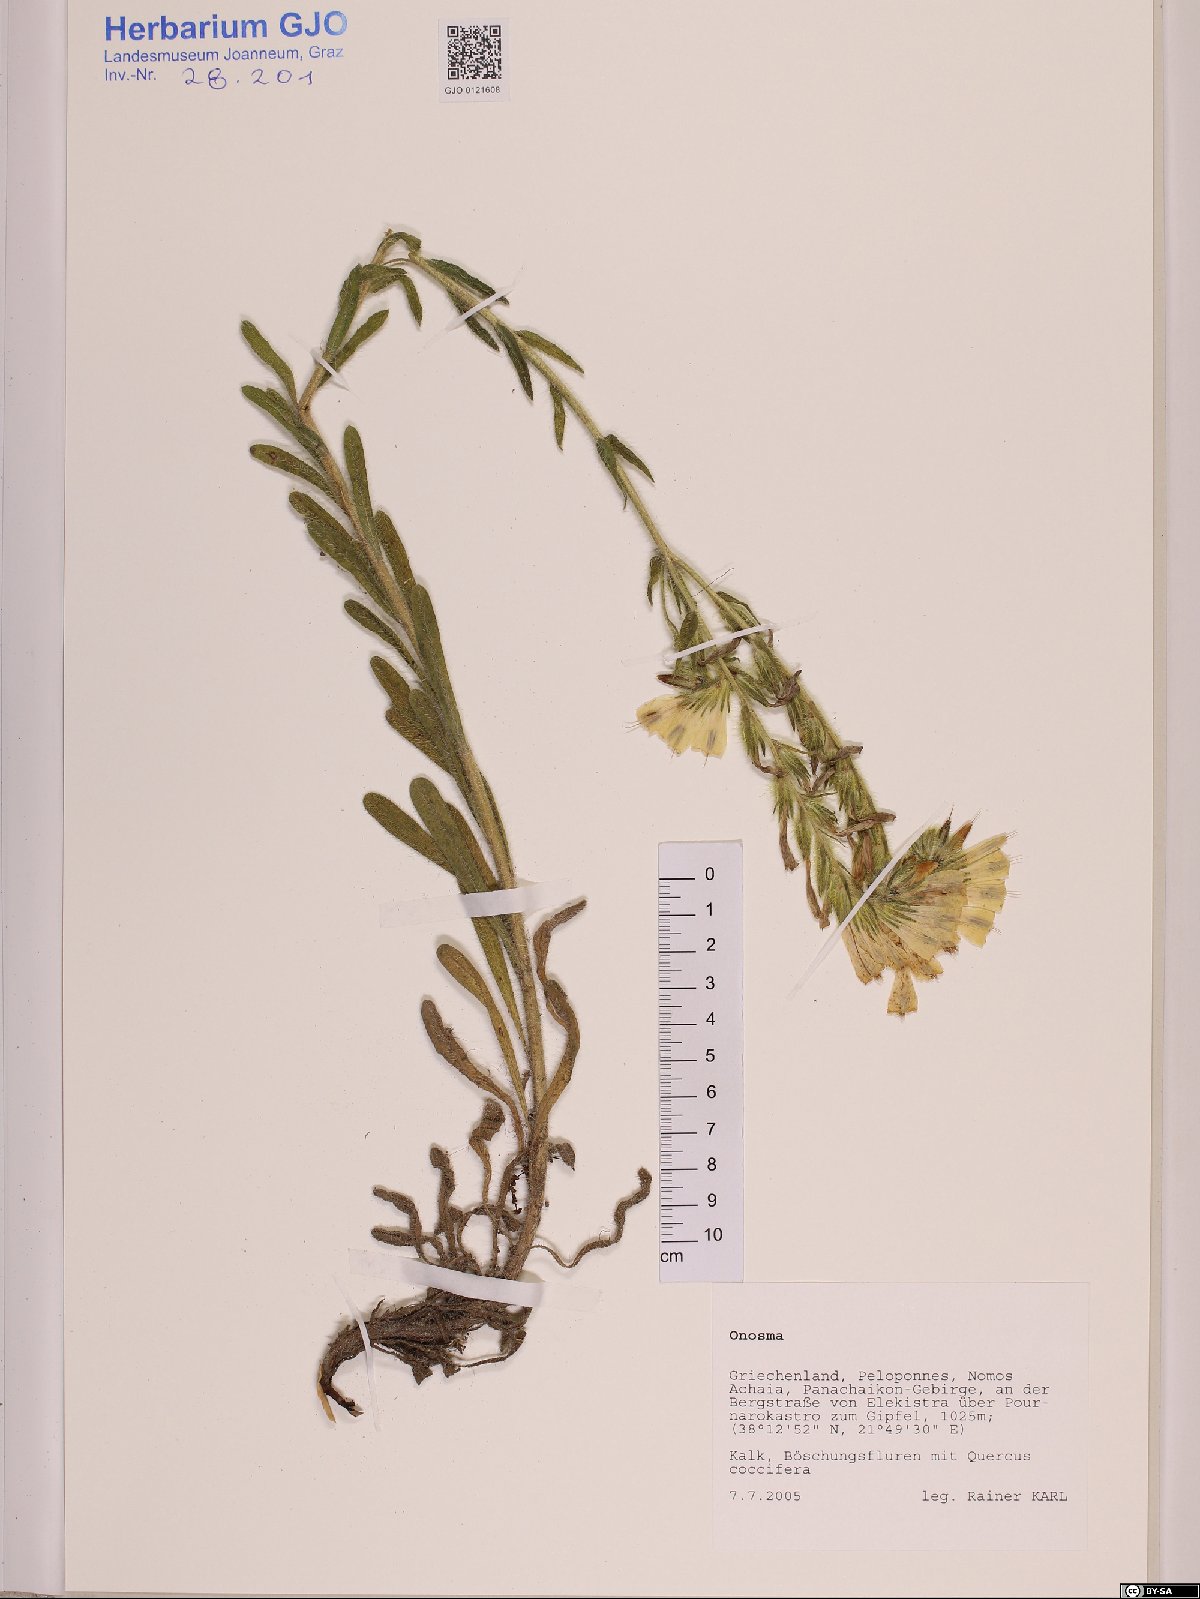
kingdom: Plantae
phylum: Tracheophyta
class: Magnoliopsida
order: Boraginales
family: Boraginaceae
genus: Onosma
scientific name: Onosma
